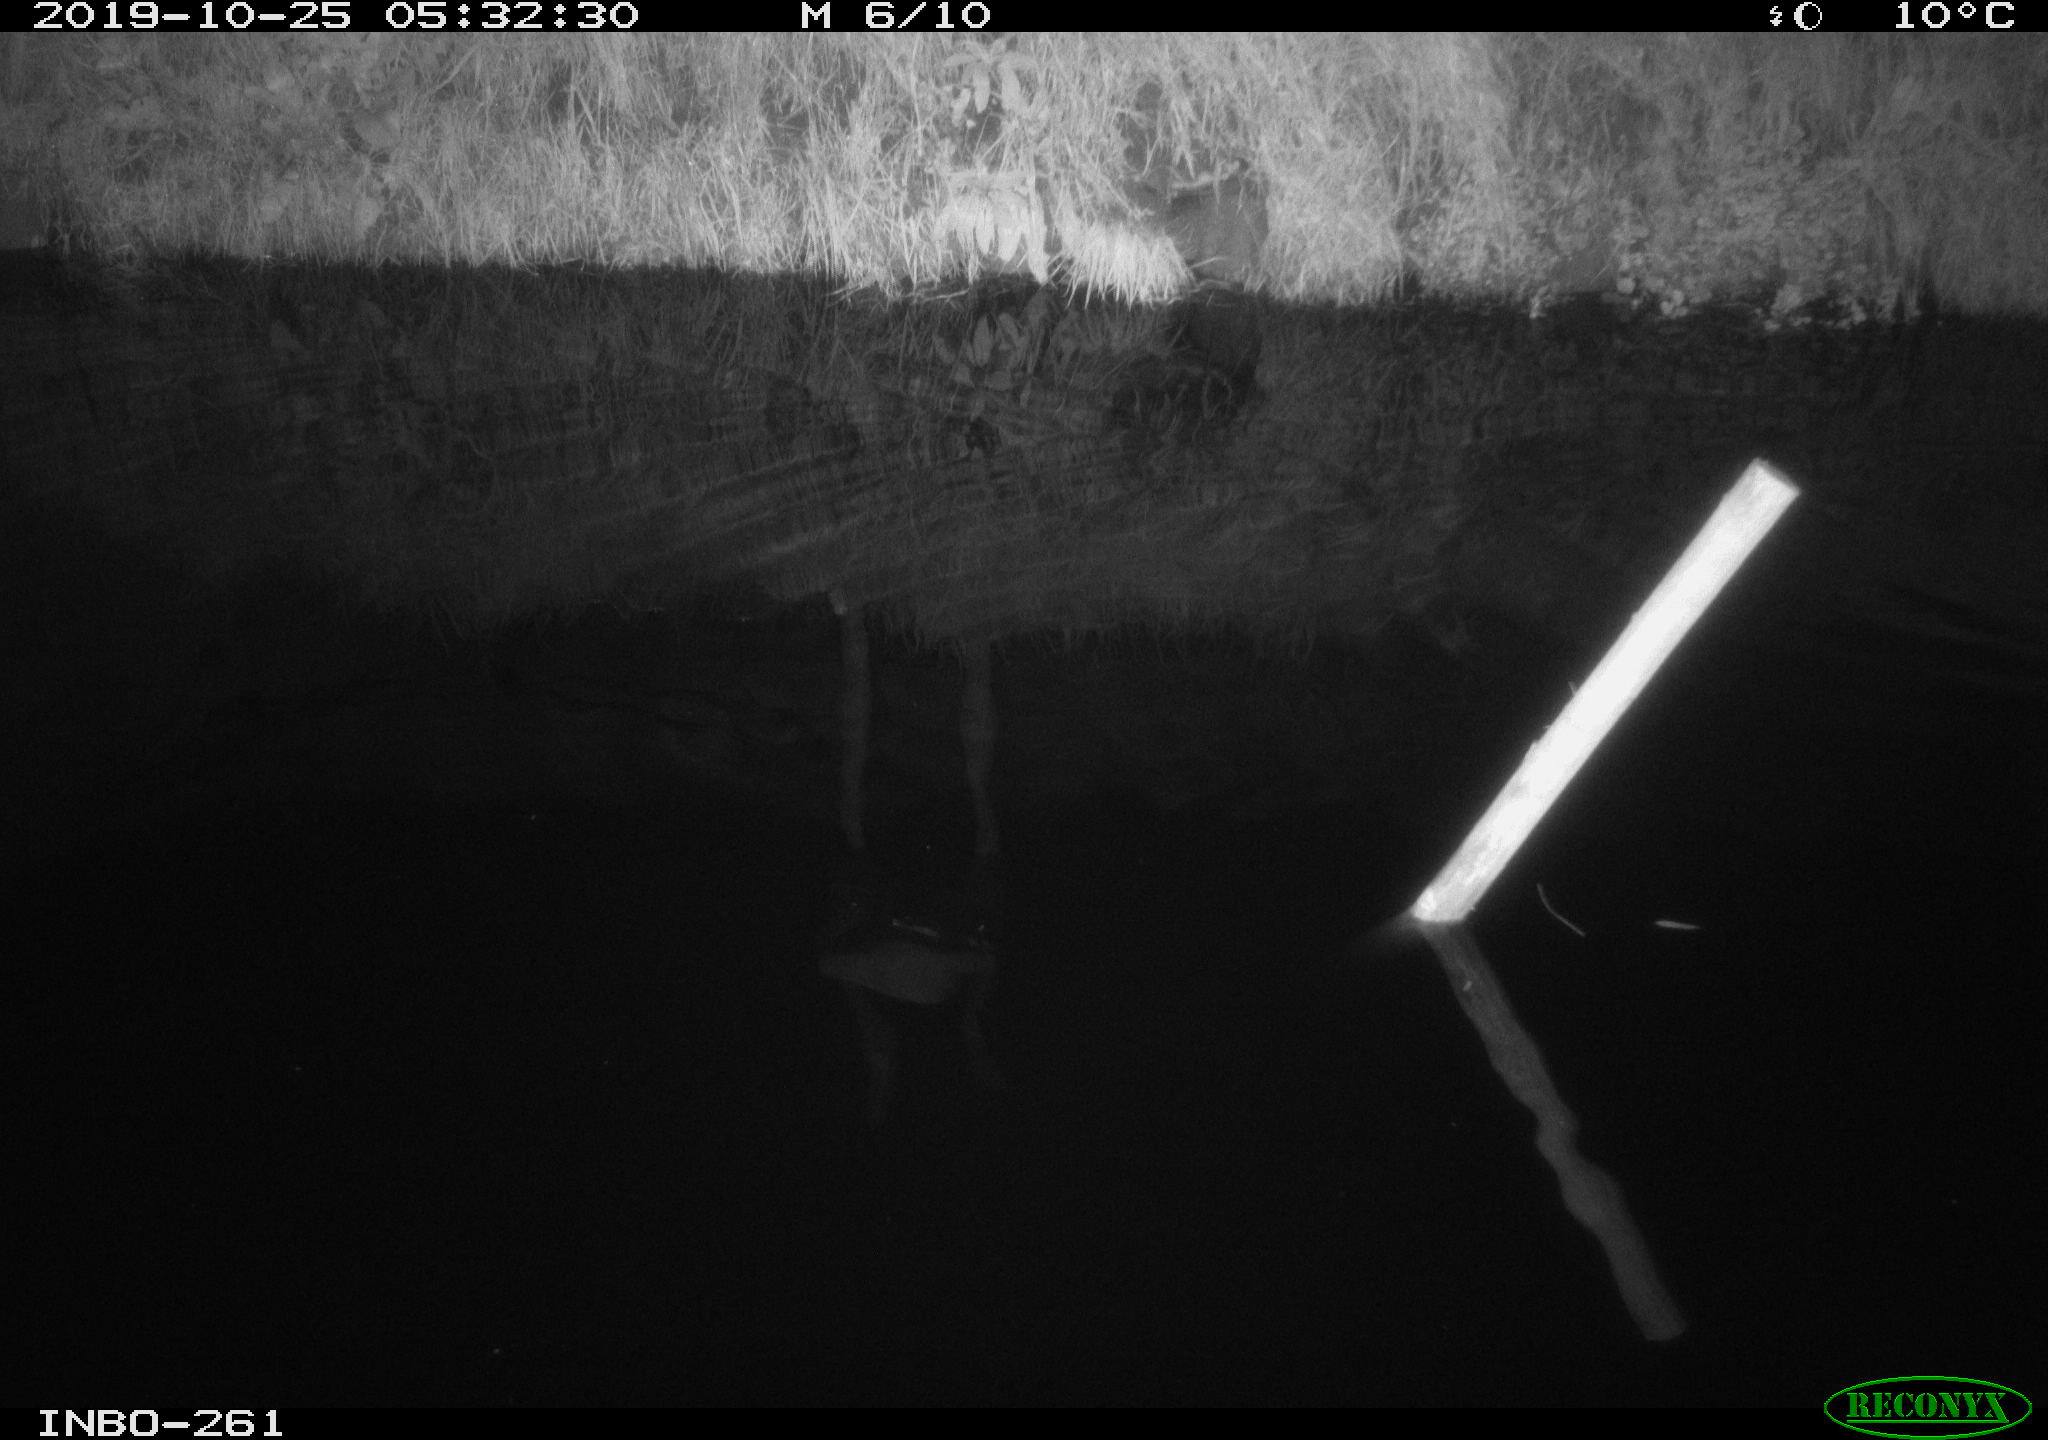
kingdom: Animalia
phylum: Chordata
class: Mammalia
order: Rodentia
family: Muridae
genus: Rattus
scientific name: Rattus norvegicus
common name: Brown rat
